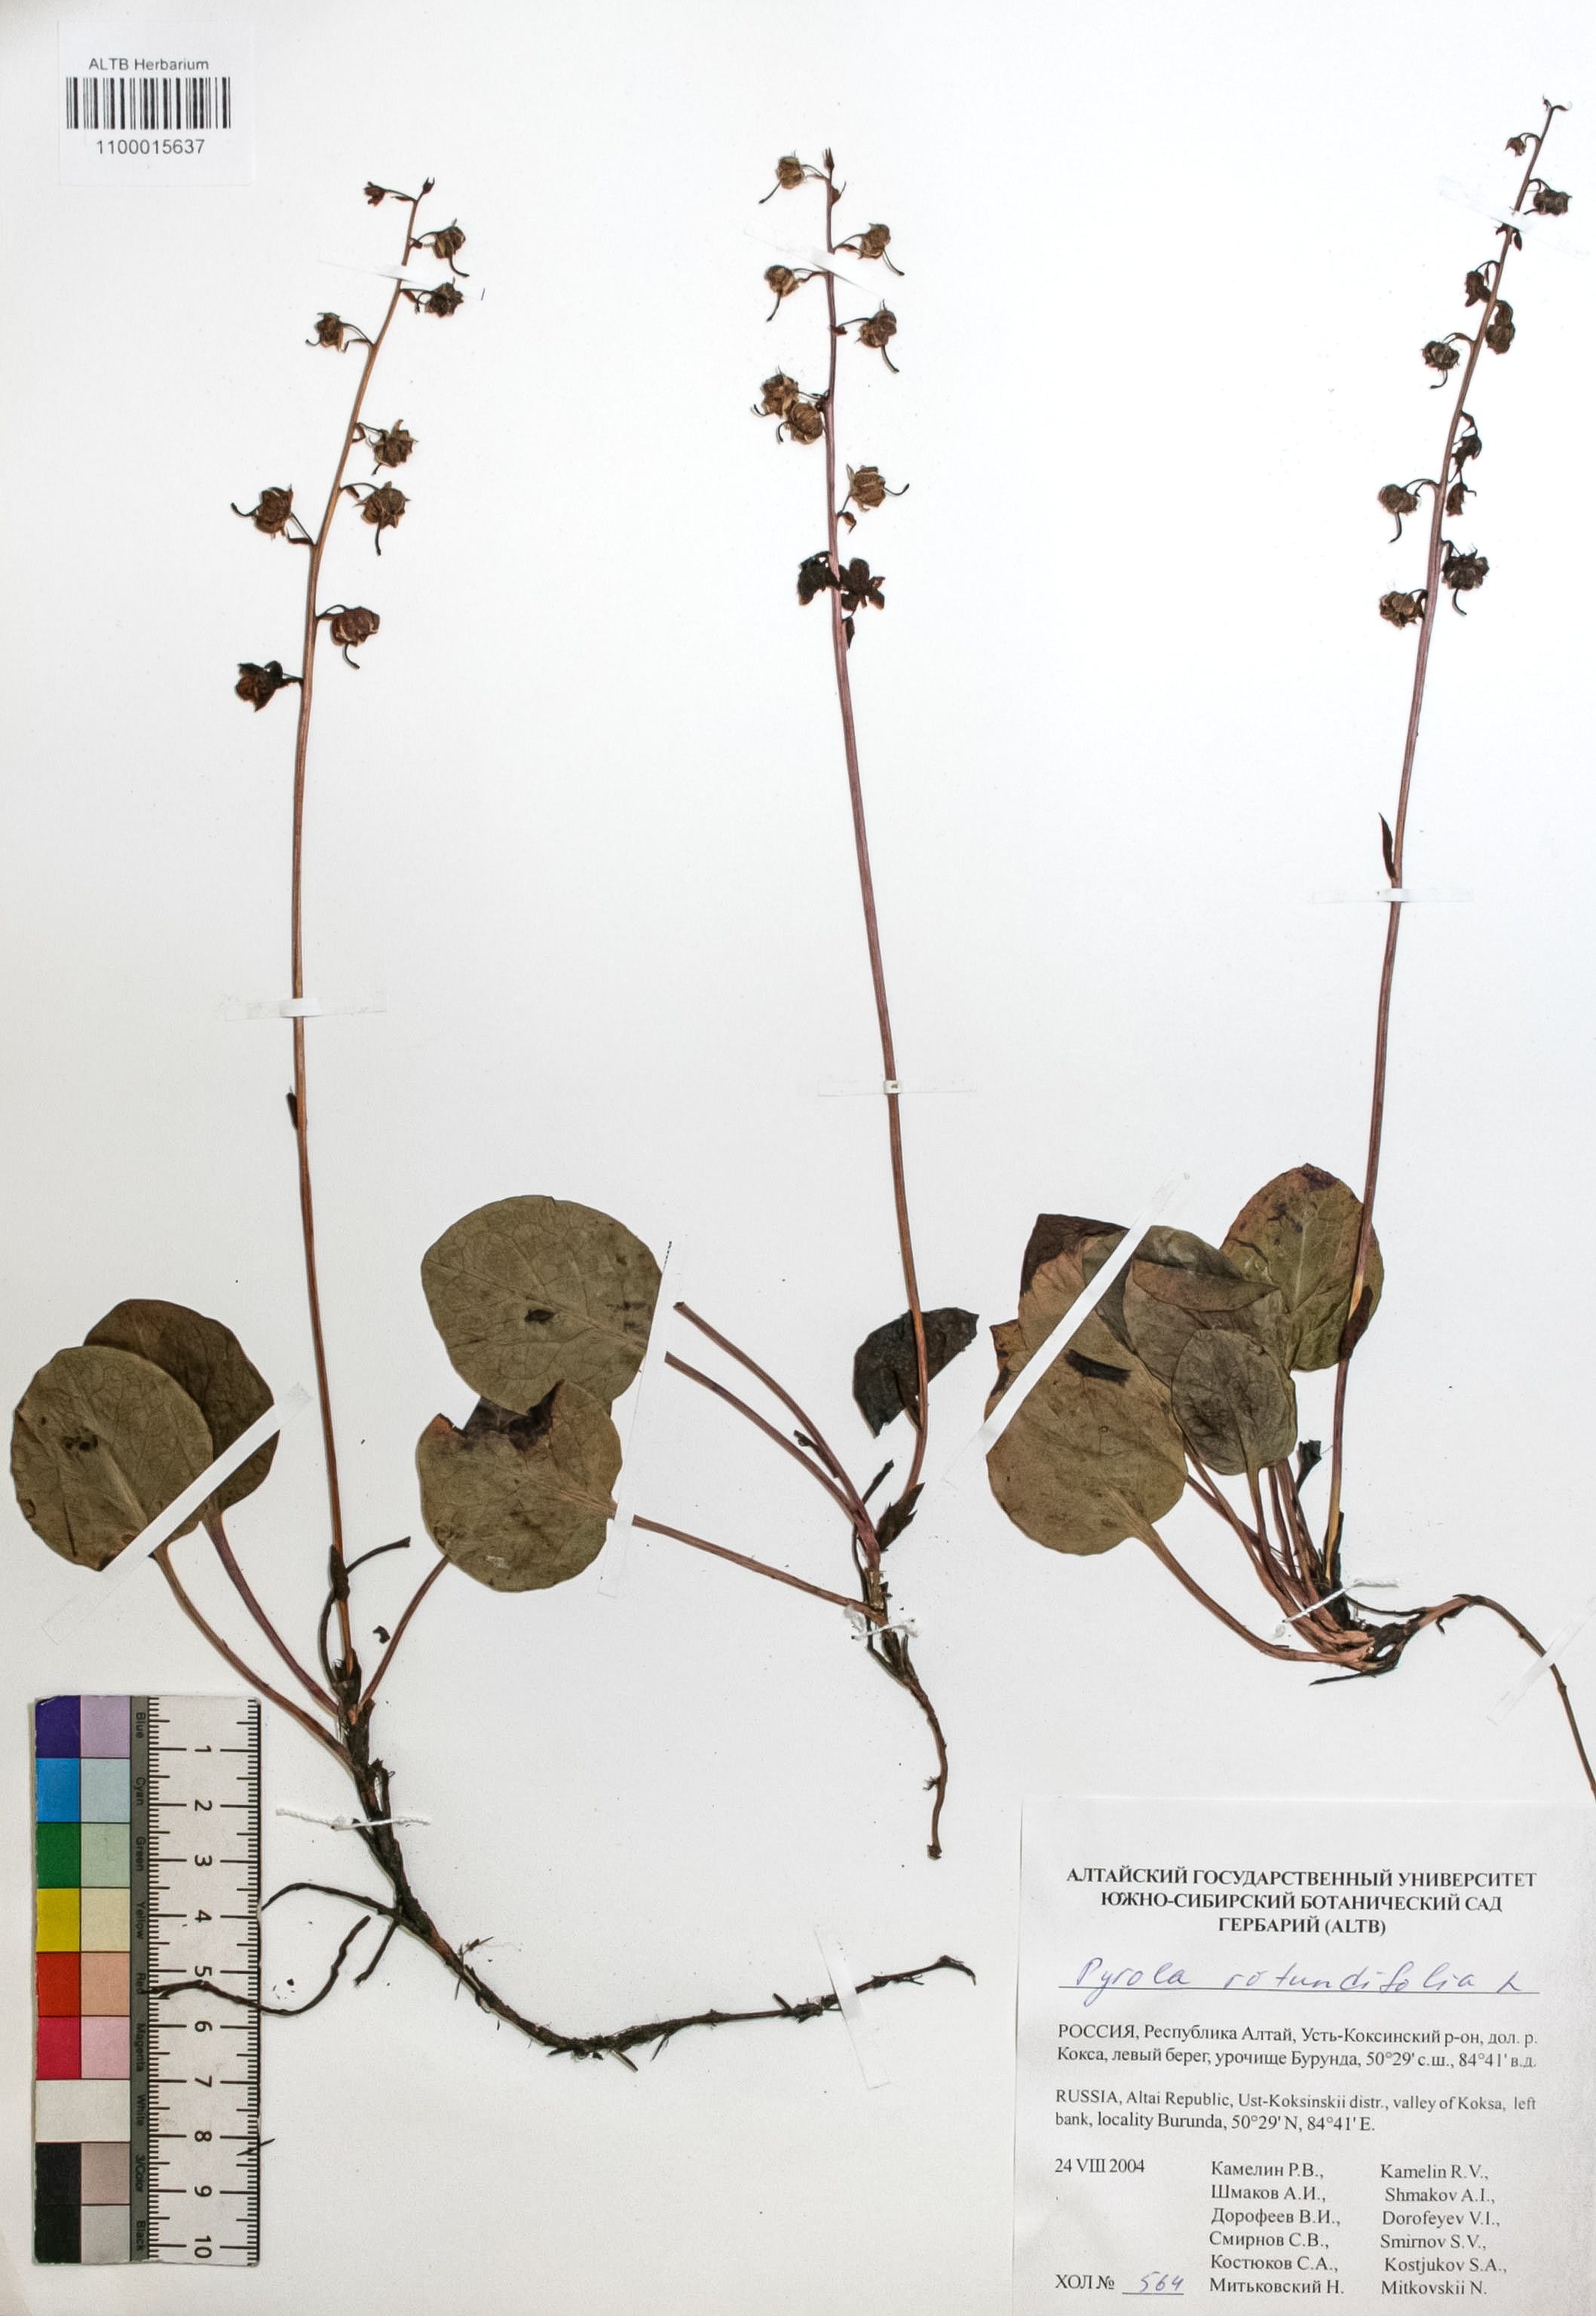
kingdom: Plantae
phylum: Tracheophyta
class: Magnoliopsida
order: Ericales
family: Ericaceae
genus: Pyrola
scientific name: Pyrola rotundifolia
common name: Round-leaved wintergreen
